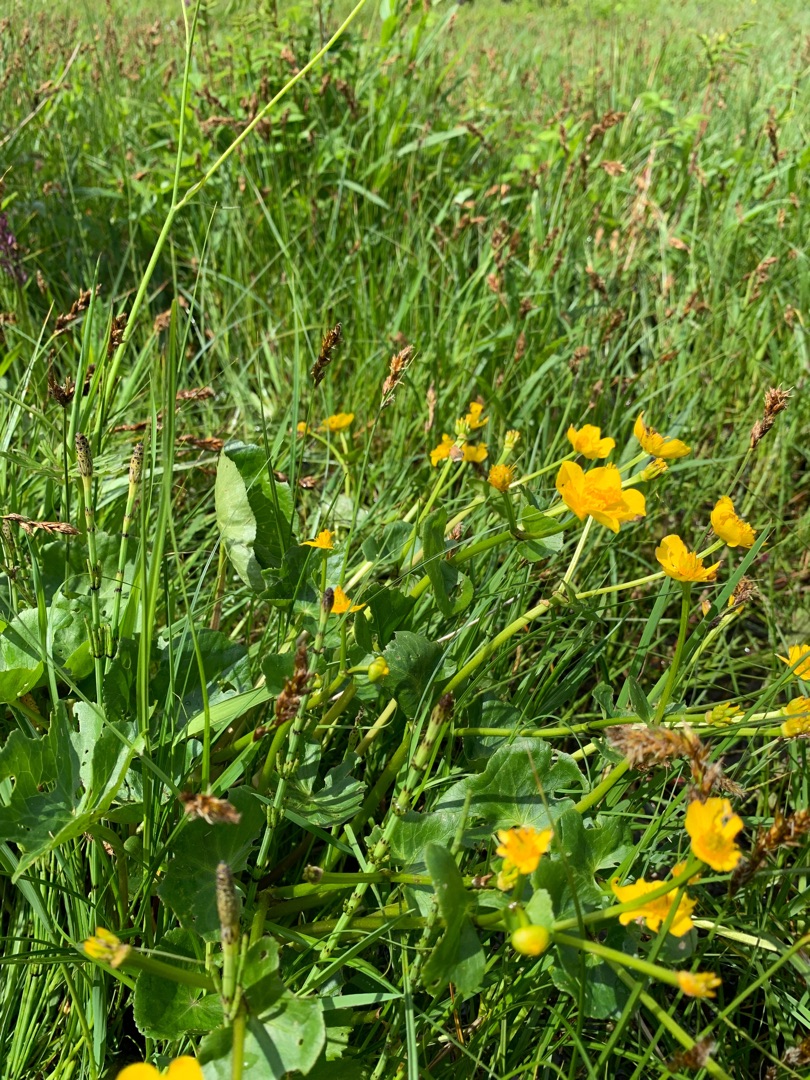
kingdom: Plantae
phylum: Tracheophyta
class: Magnoliopsida
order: Ranunculales
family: Ranunculaceae
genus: Caltha
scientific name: Caltha palustris
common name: Eng-kabbeleje
